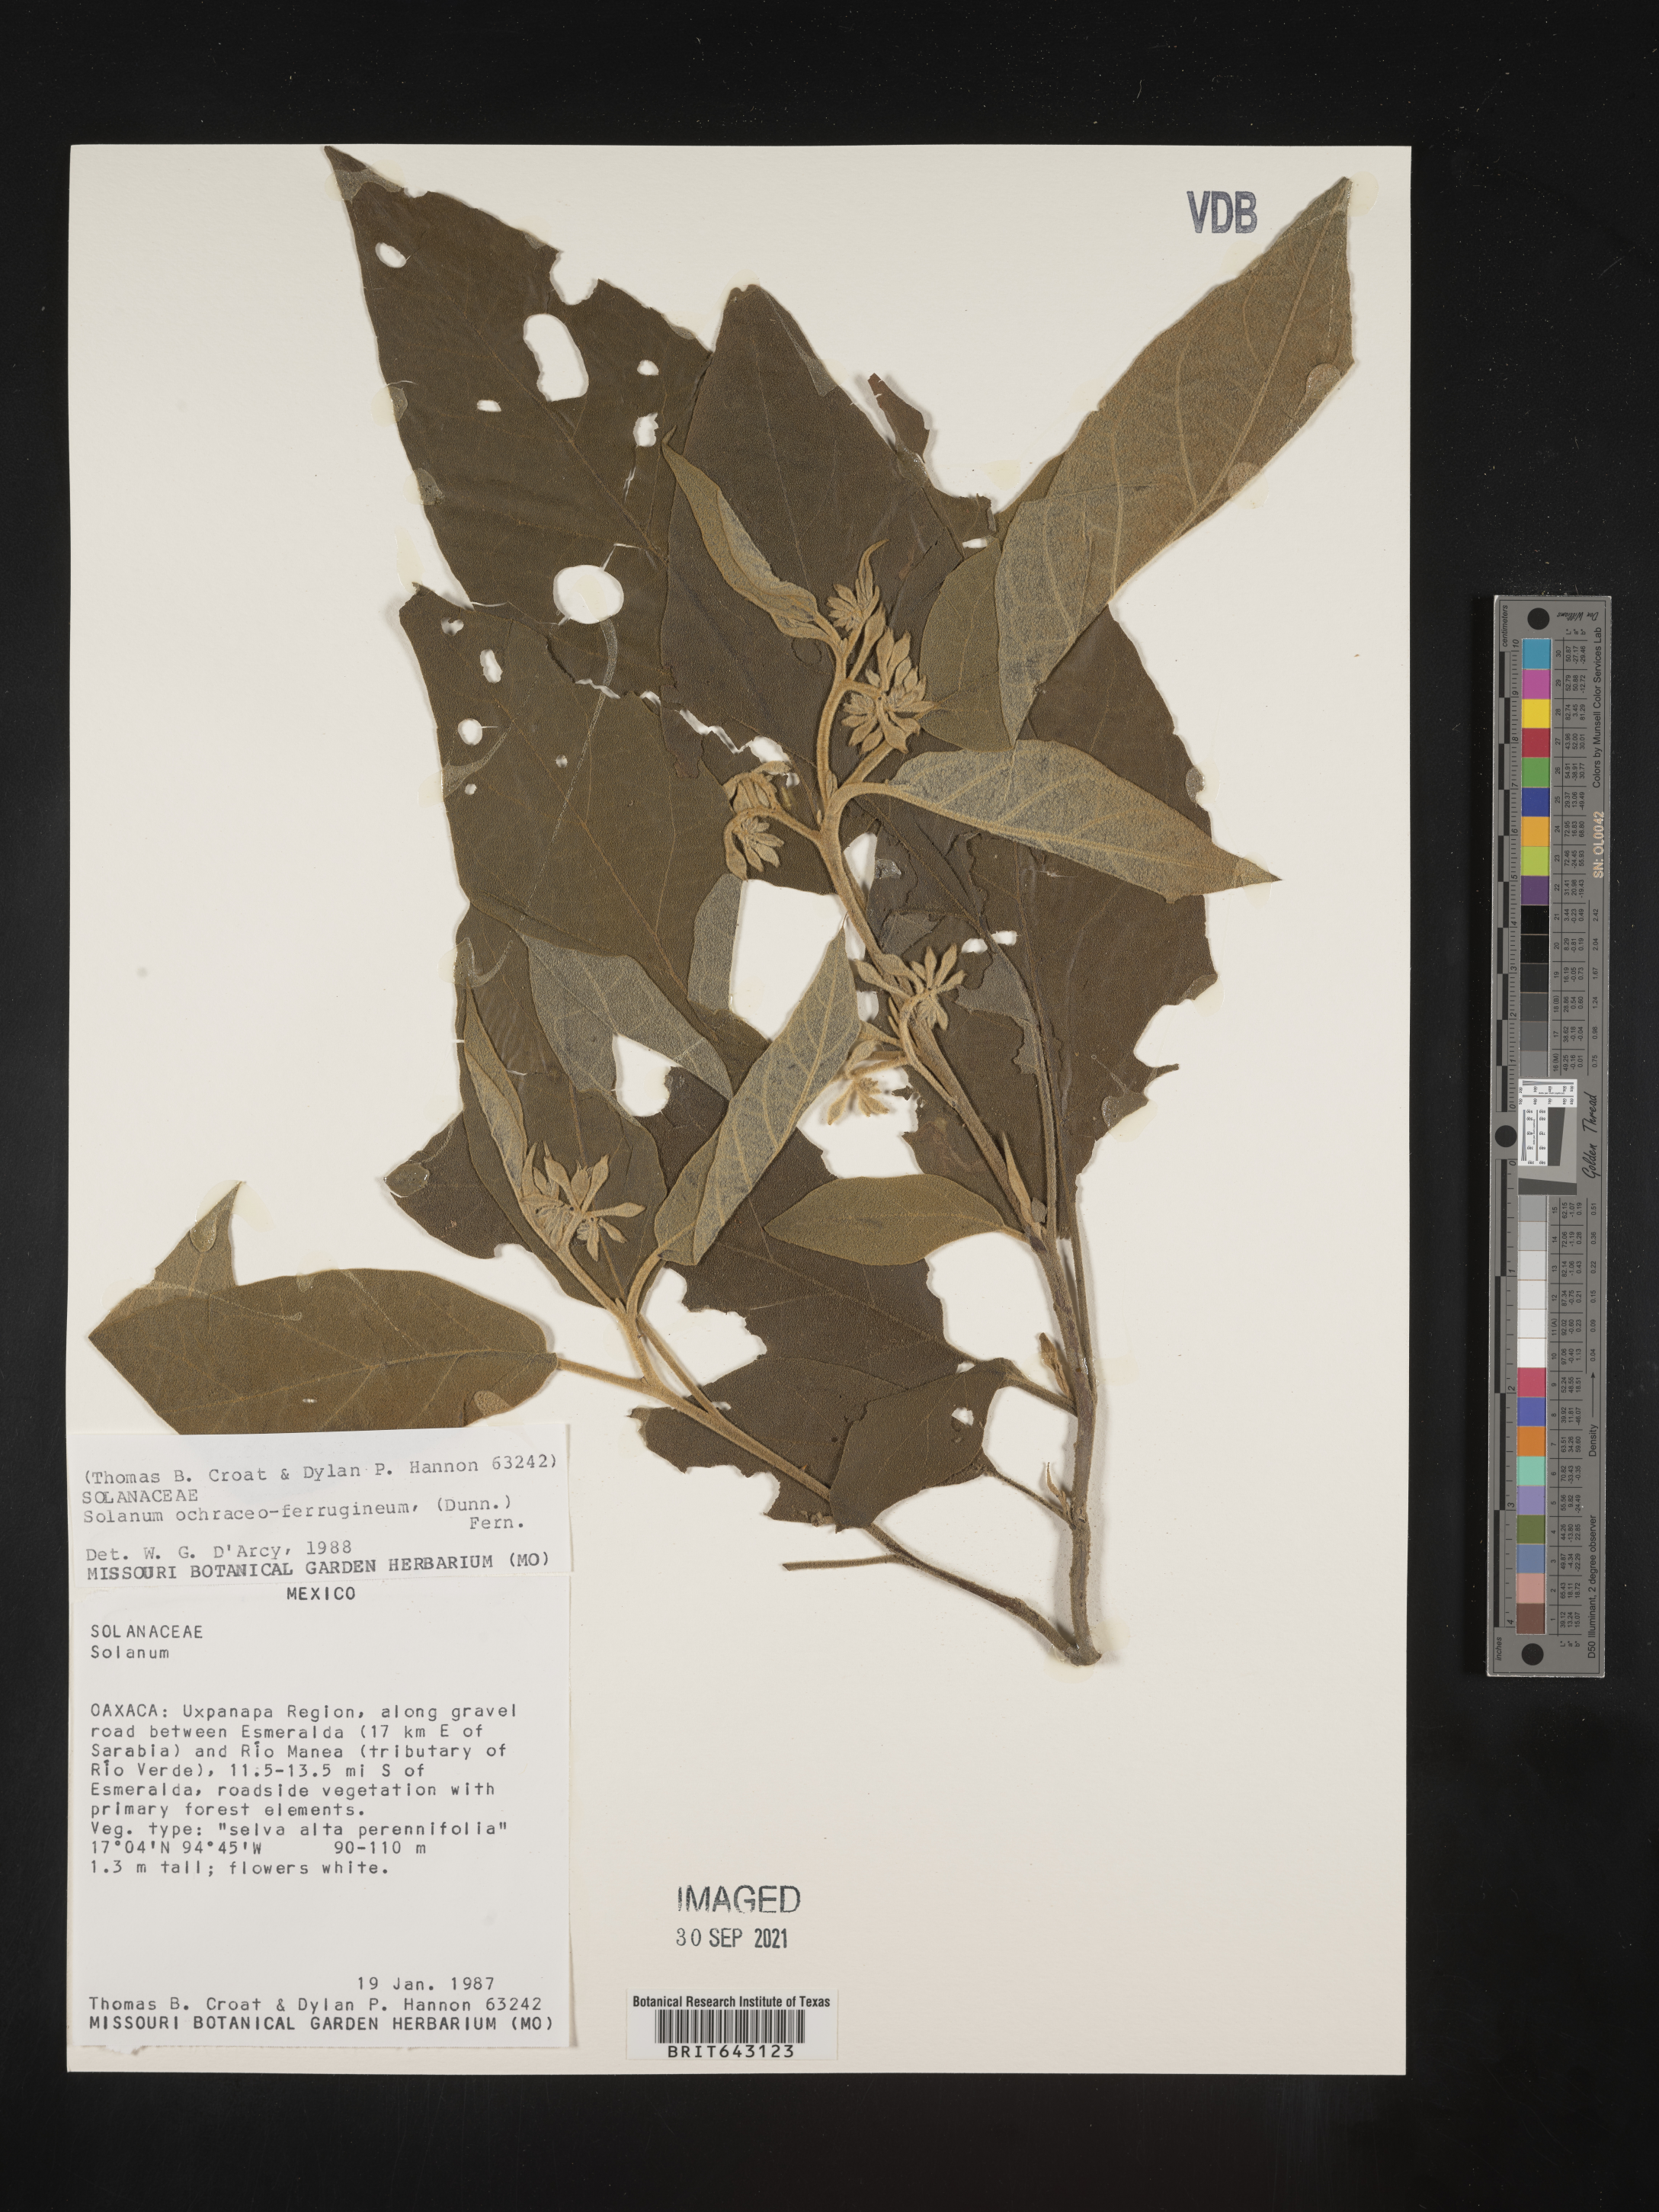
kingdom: Plantae
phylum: Tracheophyta
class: Magnoliopsida
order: Solanales
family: Solanaceae
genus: Solanum
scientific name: Solanum
